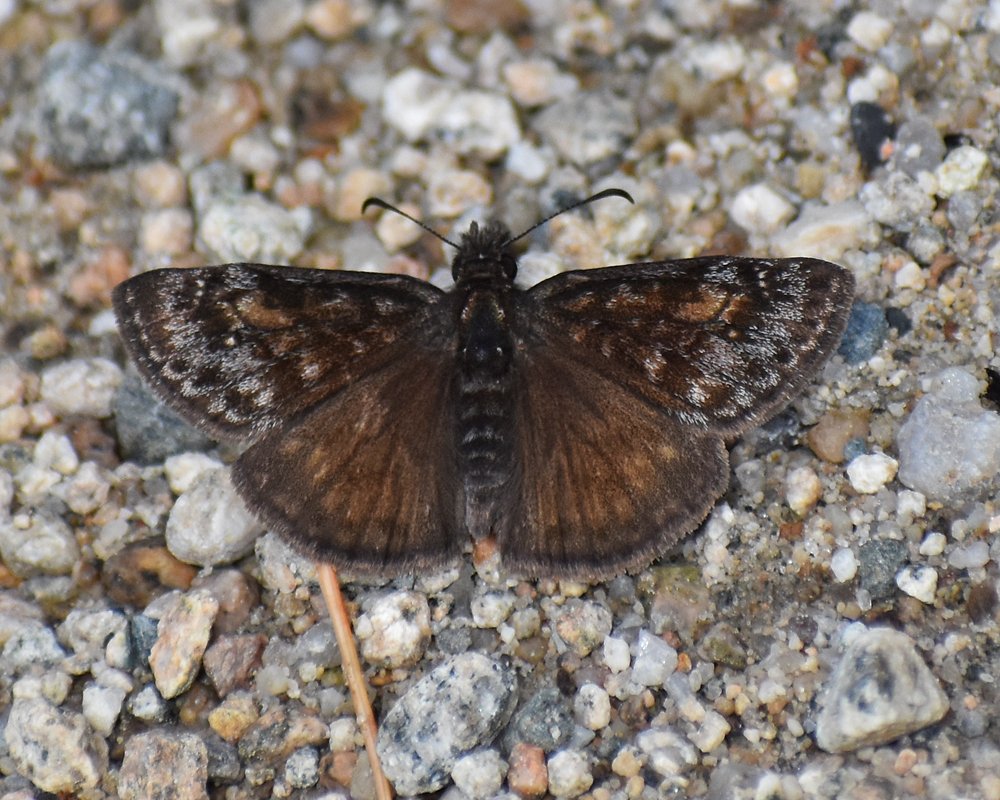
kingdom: Animalia
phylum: Arthropoda
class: Insecta
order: Lepidoptera
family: Hesperiidae
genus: Erynnis
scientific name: Erynnis pacuvius
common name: Pacuvius Duskywing
